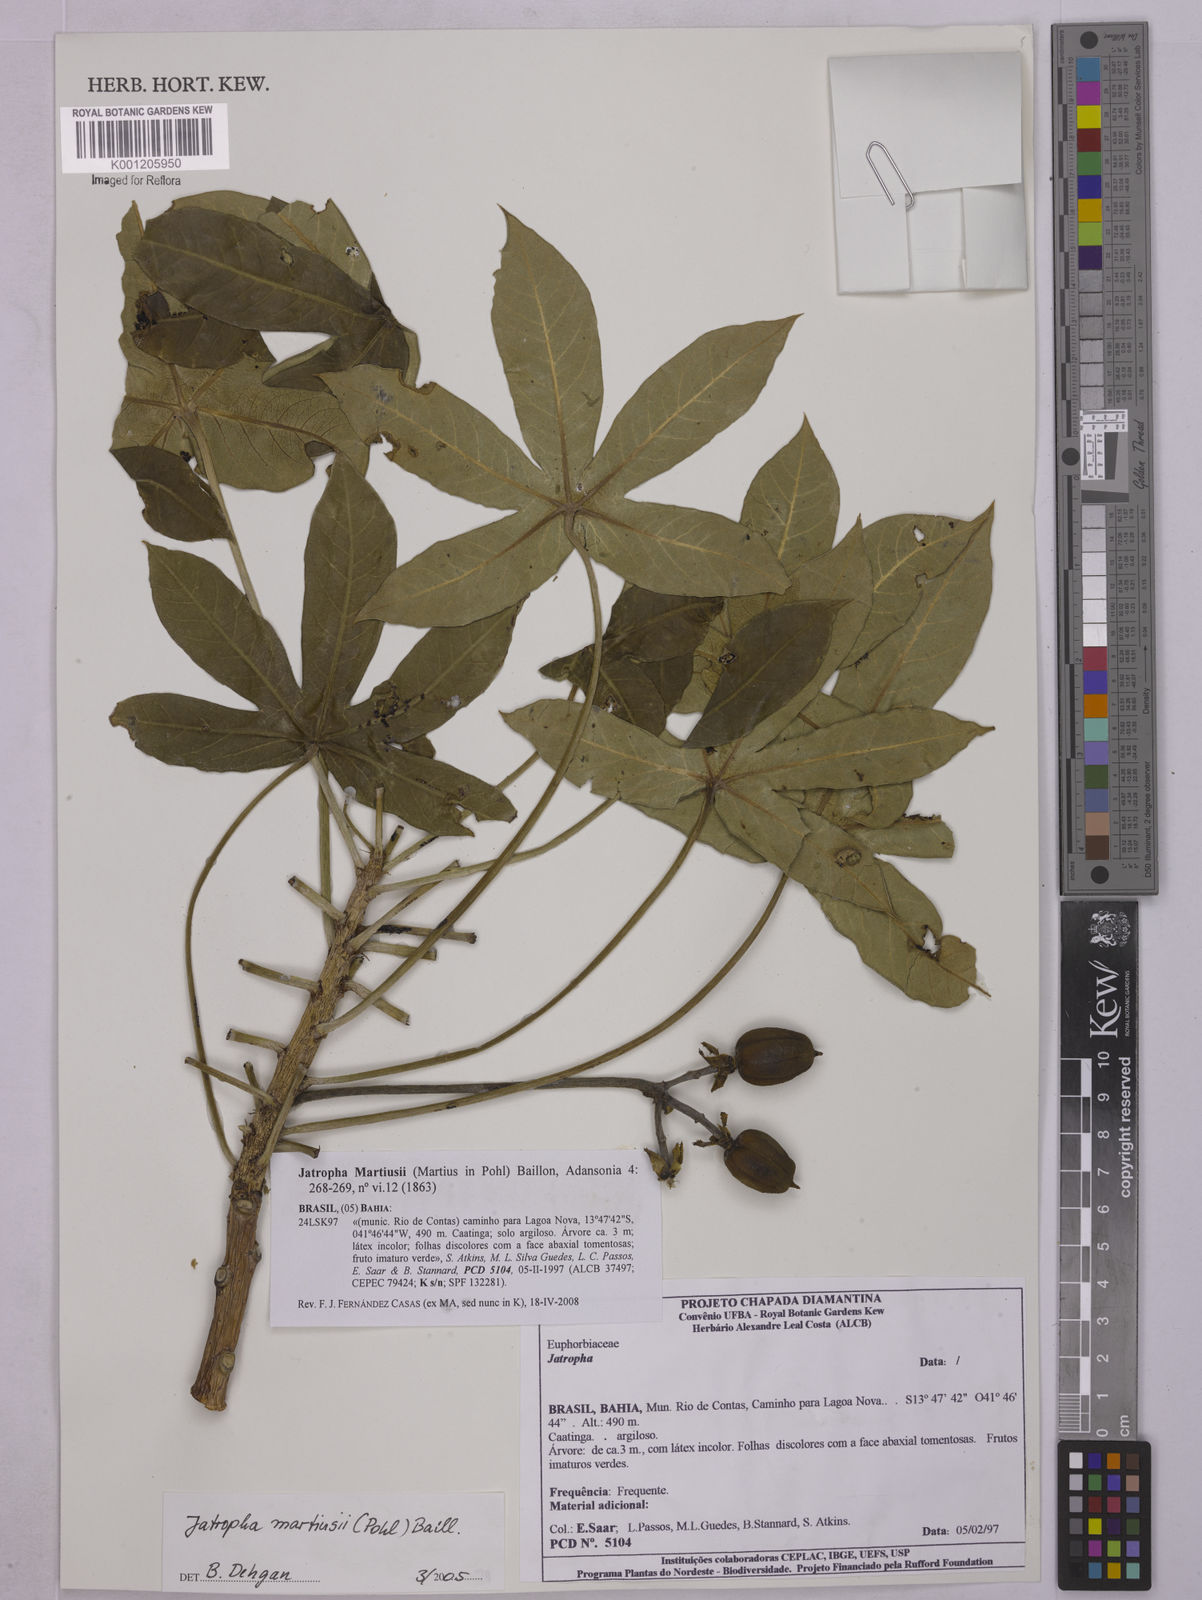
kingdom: Plantae
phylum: Tracheophyta
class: Magnoliopsida
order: Malpighiales
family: Euphorbiaceae
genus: Jatropha
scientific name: Jatropha martiusii
